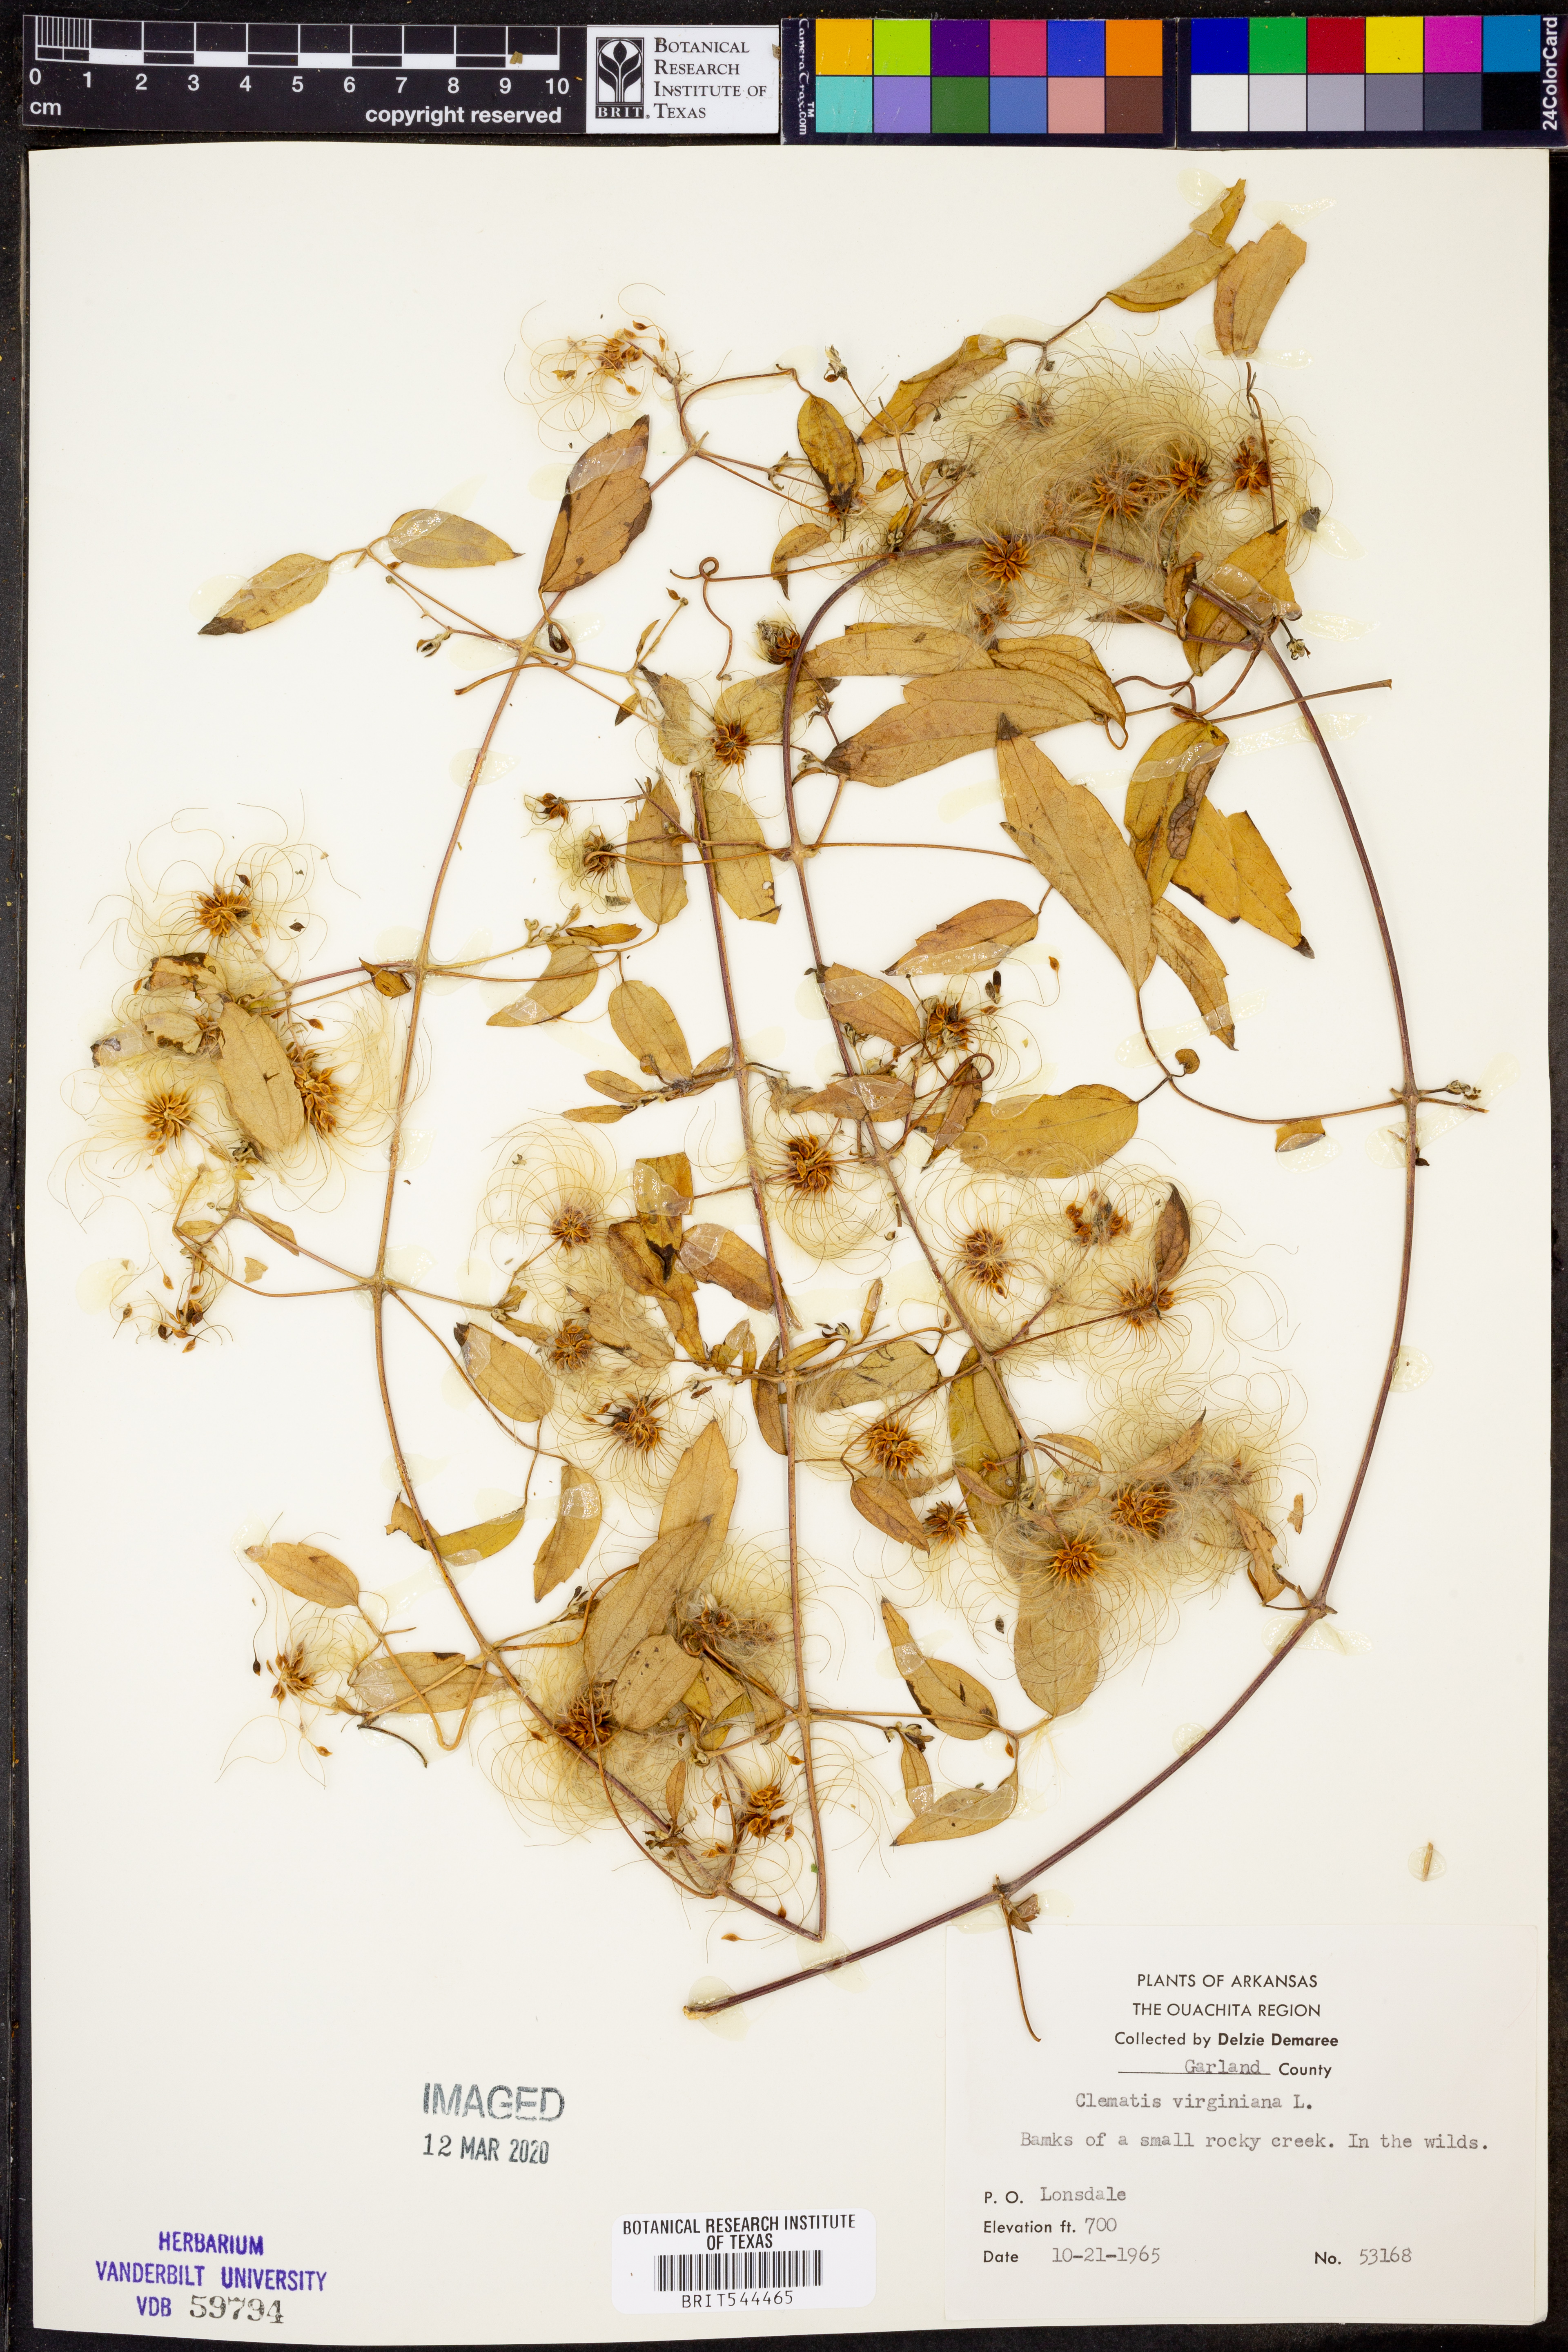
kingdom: Plantae
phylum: Tracheophyta
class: Magnoliopsida
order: Ranunculales
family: Ranunculaceae
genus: Clematis
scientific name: Clematis virginiana
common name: Virgin's-bower
